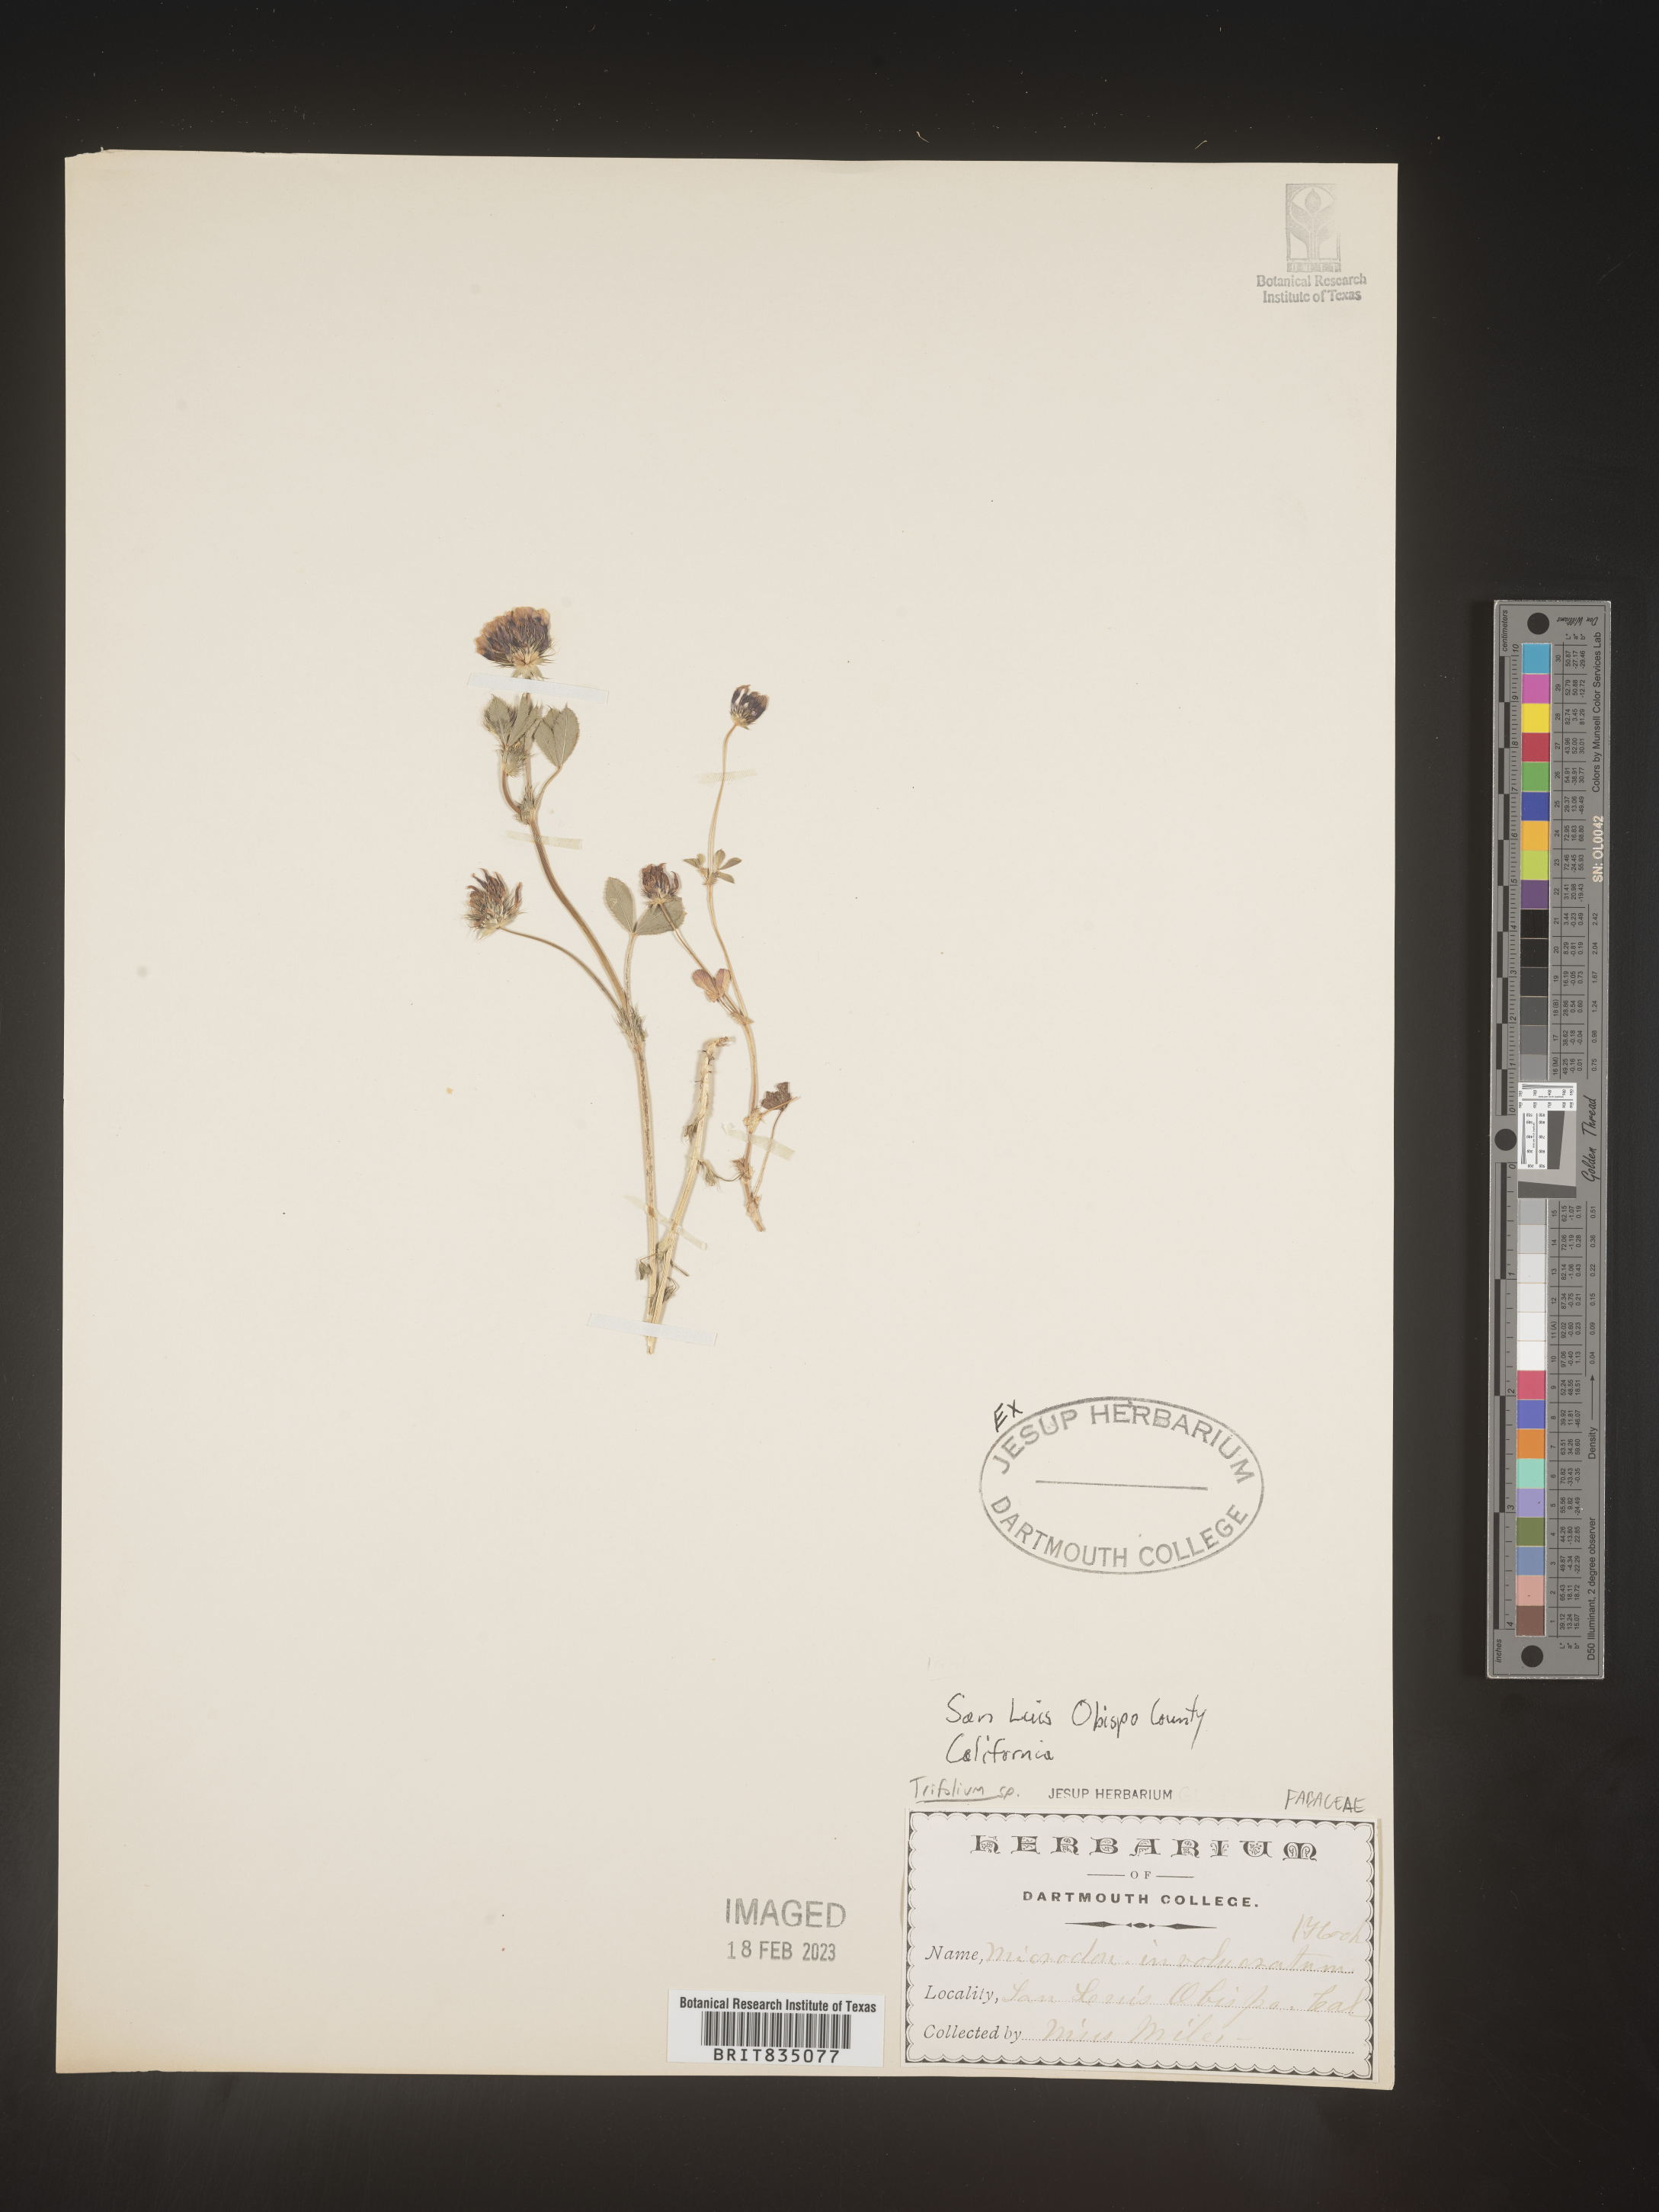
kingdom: Plantae
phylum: Tracheophyta
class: Magnoliopsida
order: Fabales
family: Fabaceae
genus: Trifolium
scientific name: Trifolium
